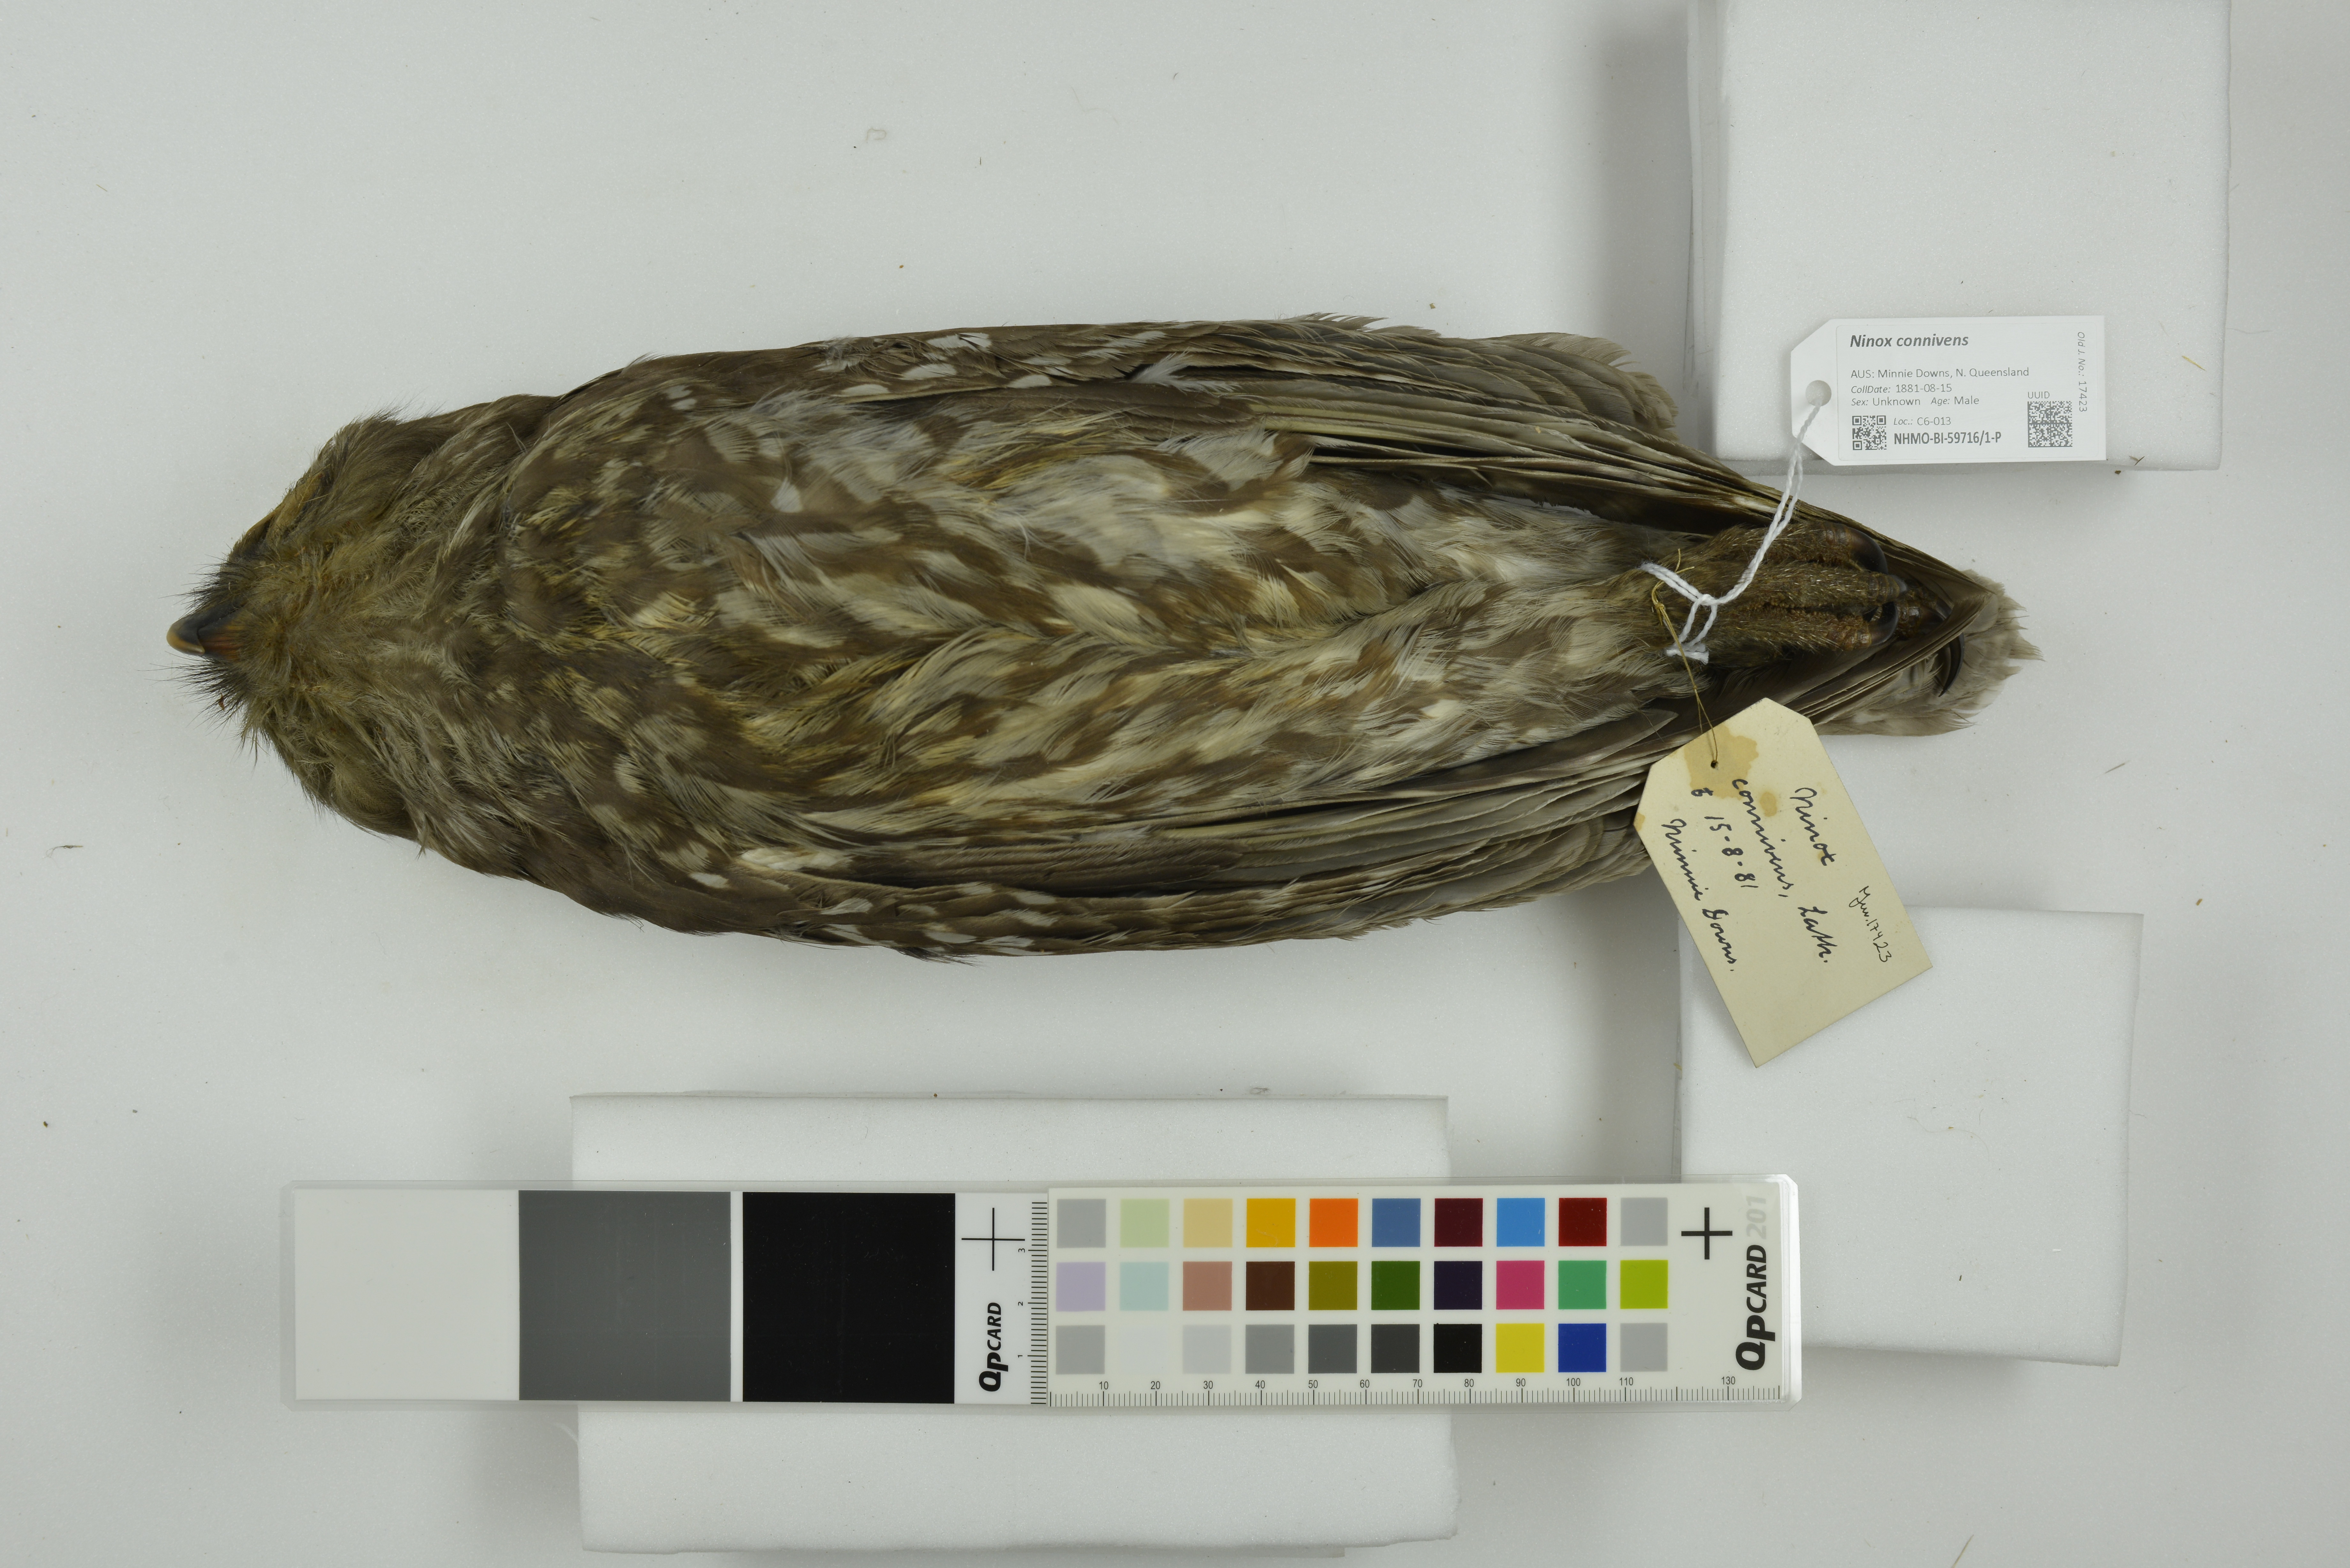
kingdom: Animalia
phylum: Chordata
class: Aves
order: Strigiformes
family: Strigidae
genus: Ninox
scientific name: Ninox connivens
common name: Barking owl
